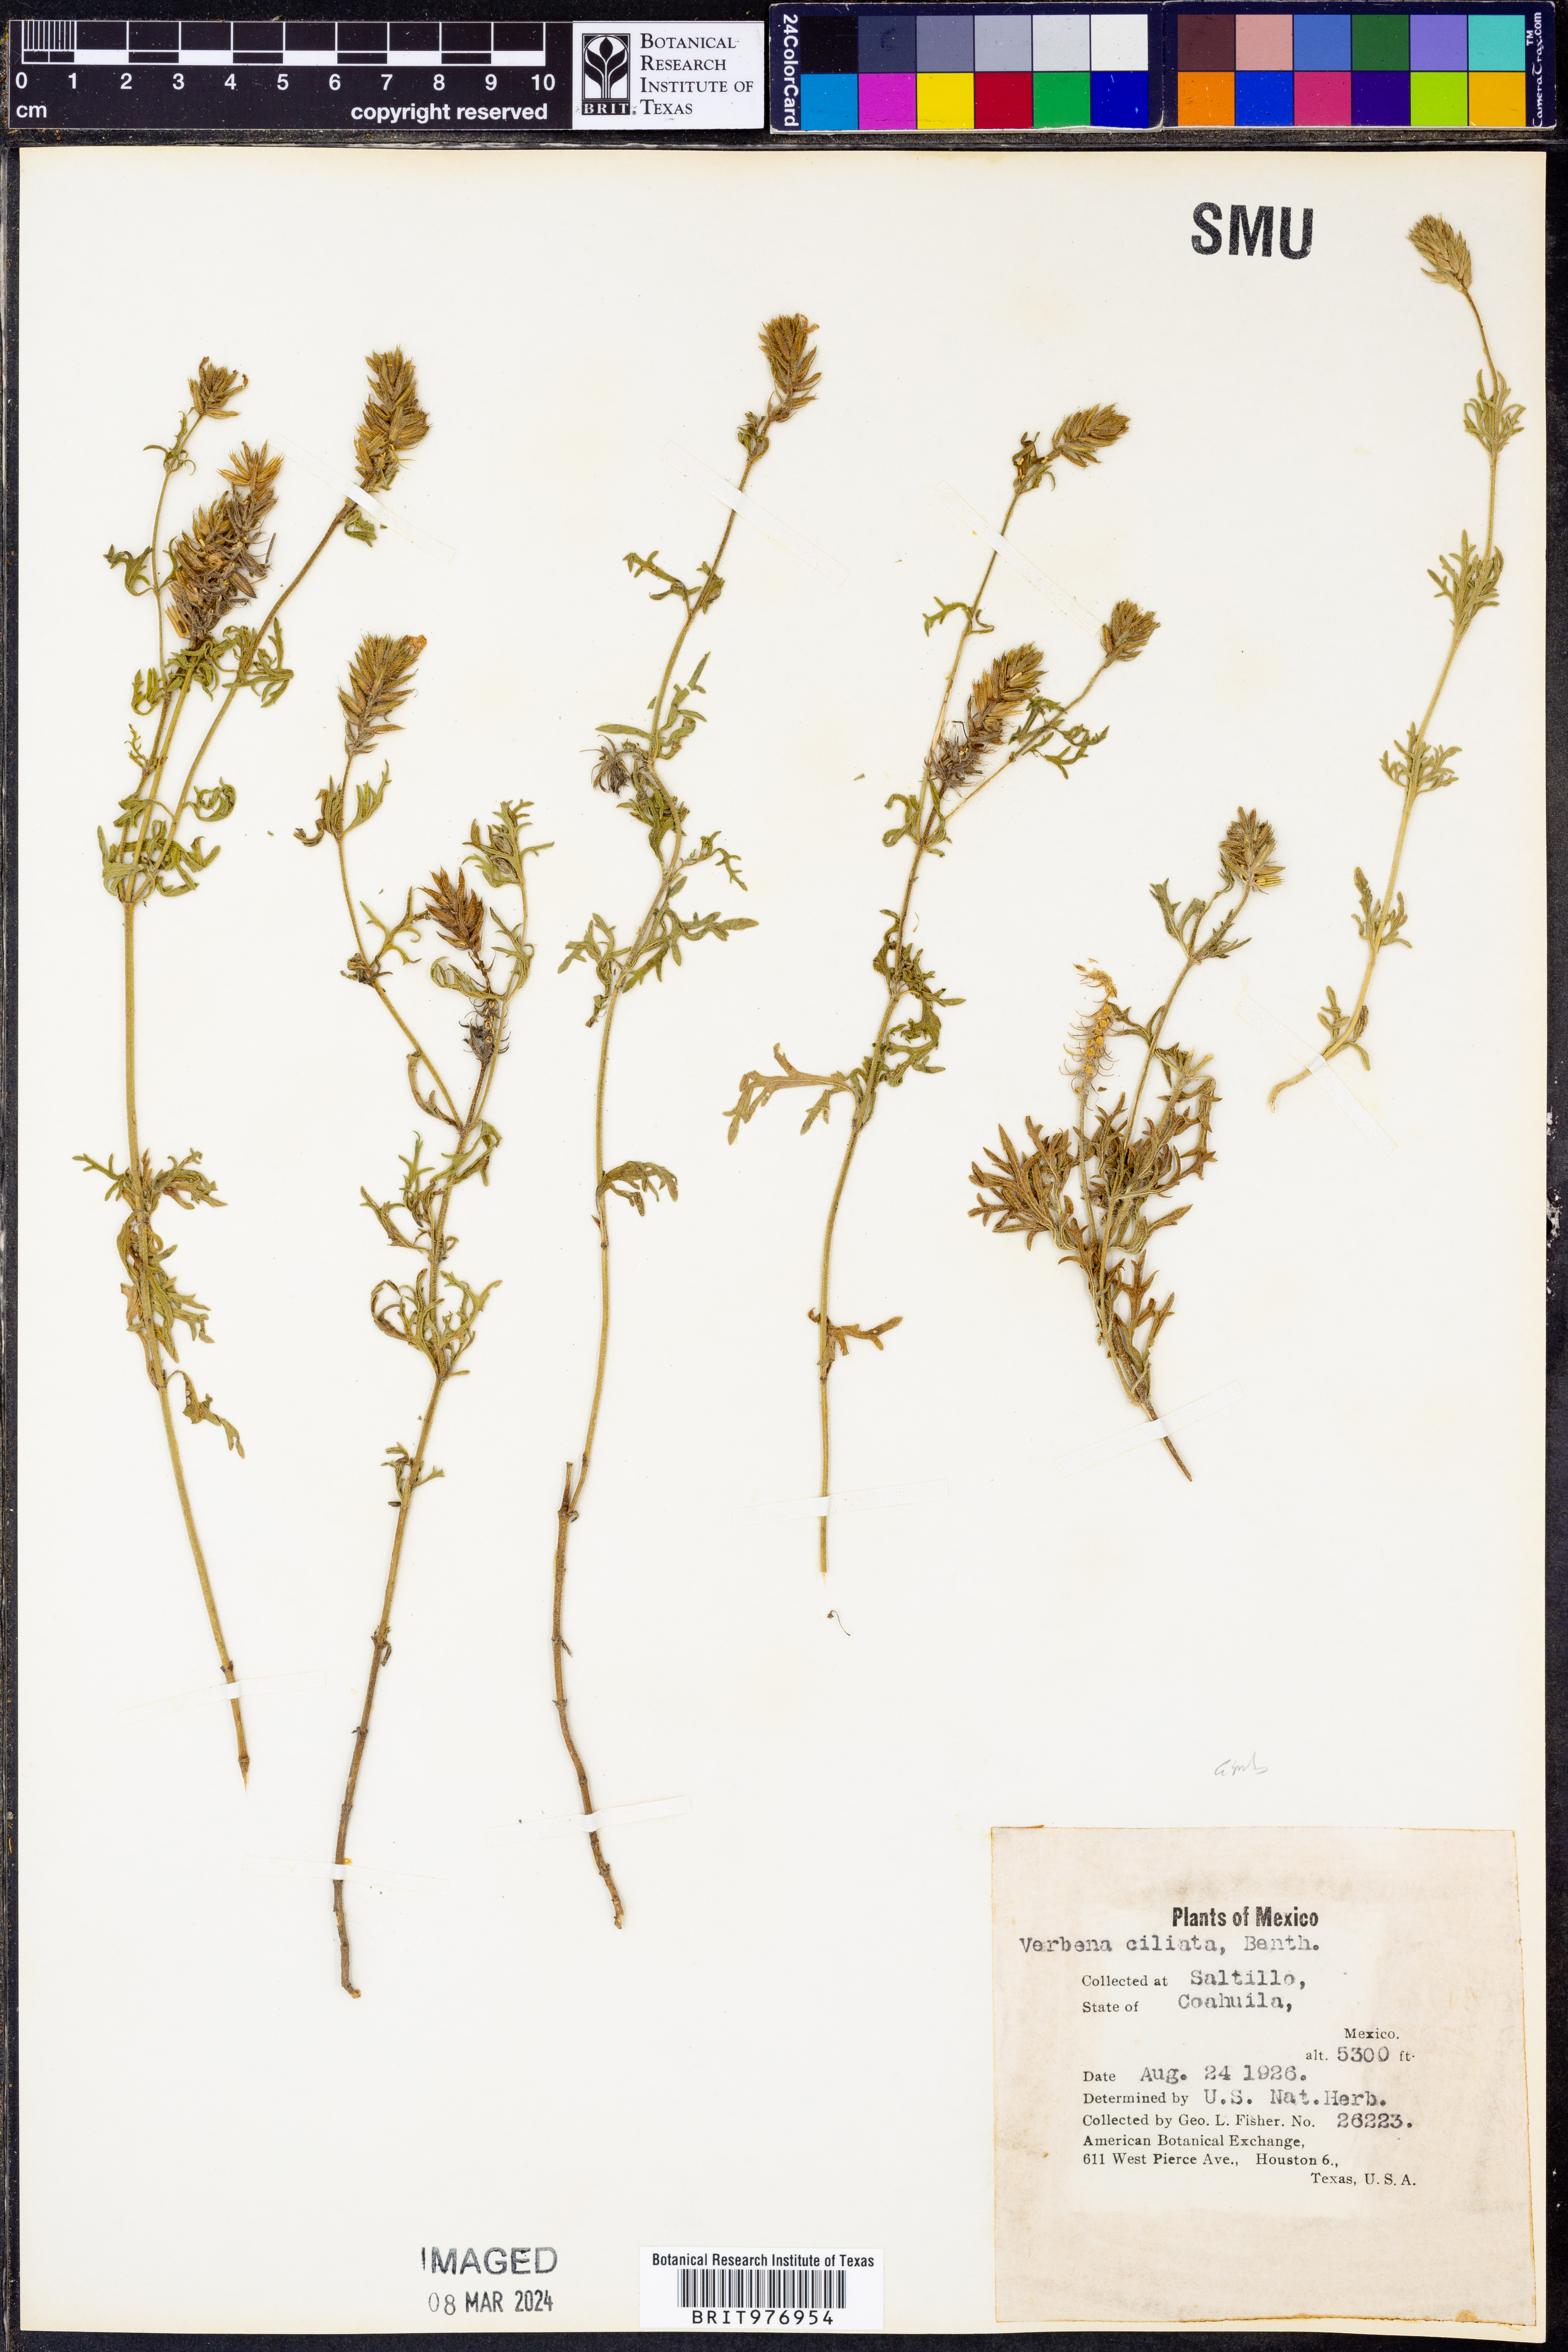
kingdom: Plantae
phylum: Tracheophyta
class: Magnoliopsida
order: Lamiales
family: Verbenaceae
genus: Verbena
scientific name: Verbena
